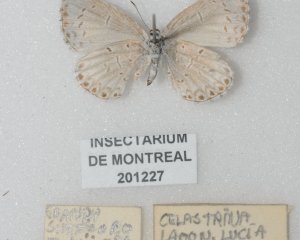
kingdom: Animalia
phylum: Arthropoda
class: Insecta
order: Lepidoptera
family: Lycaenidae
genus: Cyaniris
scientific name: Cyaniris neglecta
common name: Summer Azure
